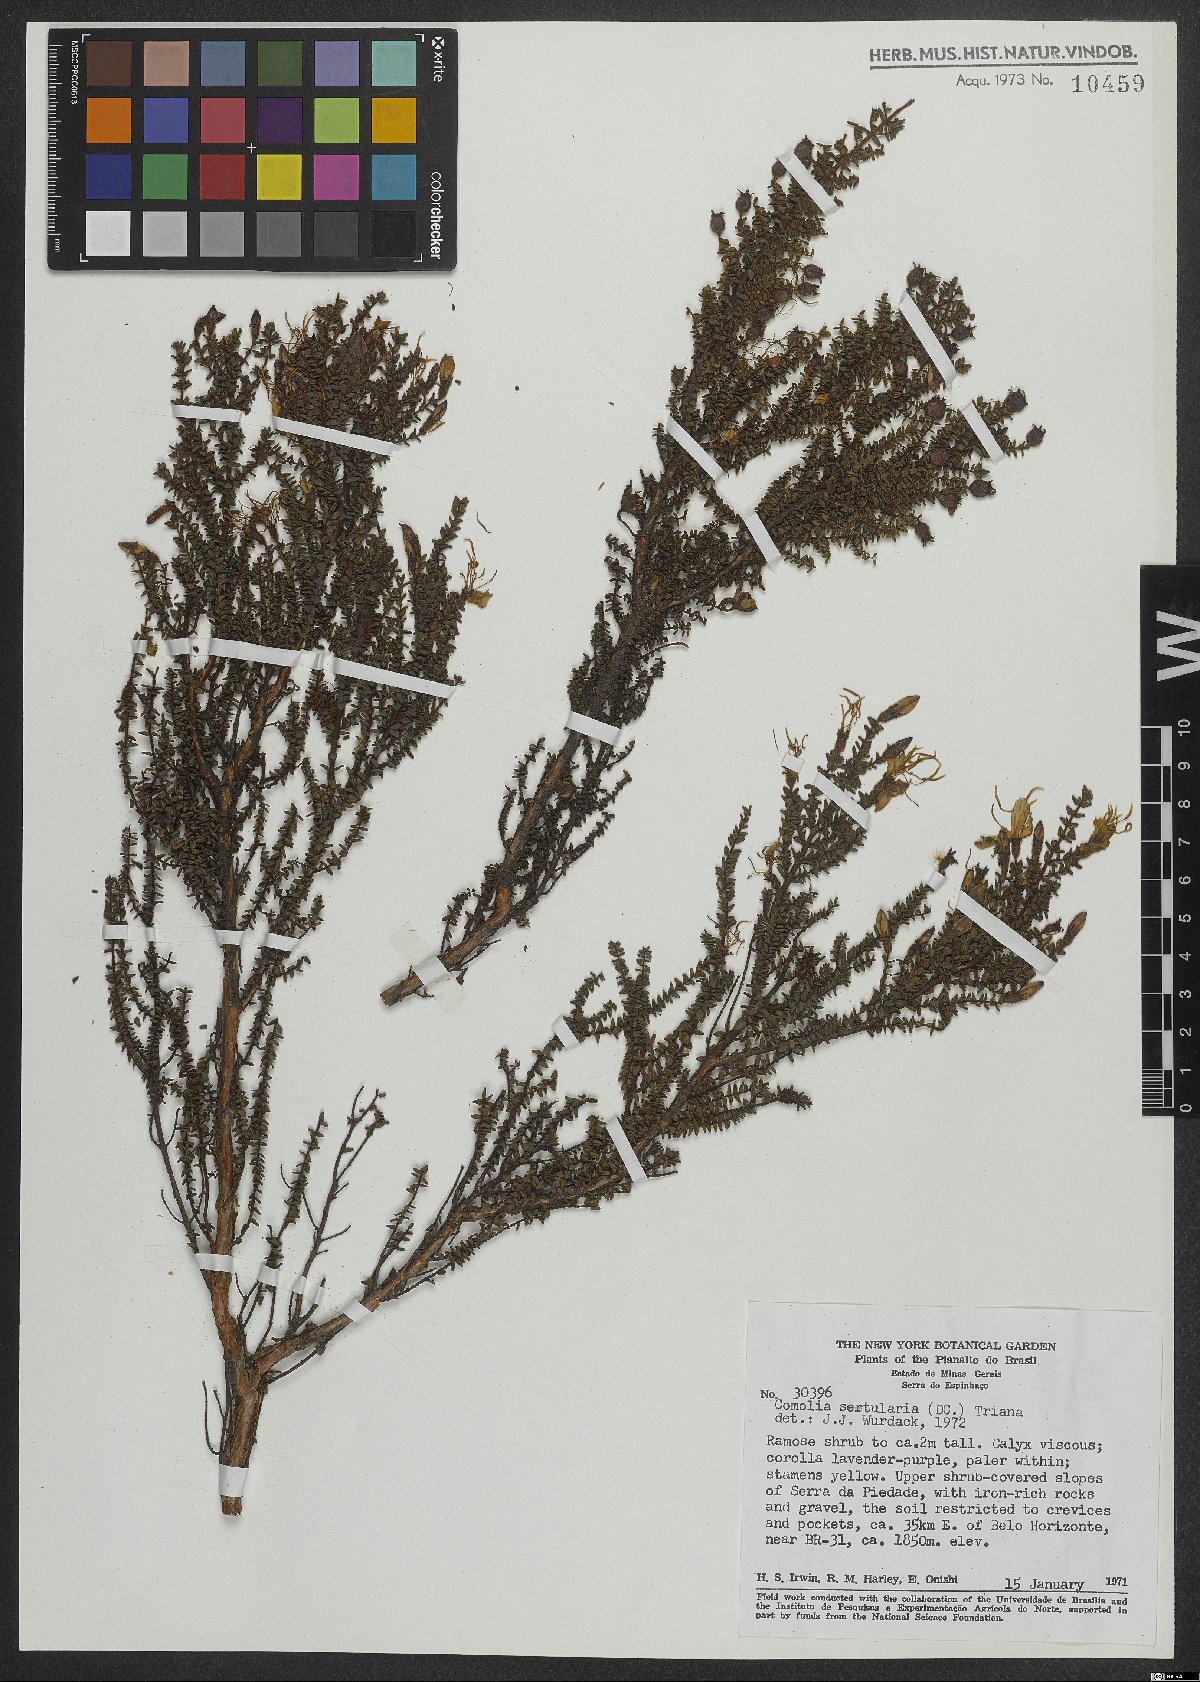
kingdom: Plantae
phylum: Tracheophyta
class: Magnoliopsida
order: Myrtales
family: Melastomataceae
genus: Fritzschia
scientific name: Fritzschia sertularia
